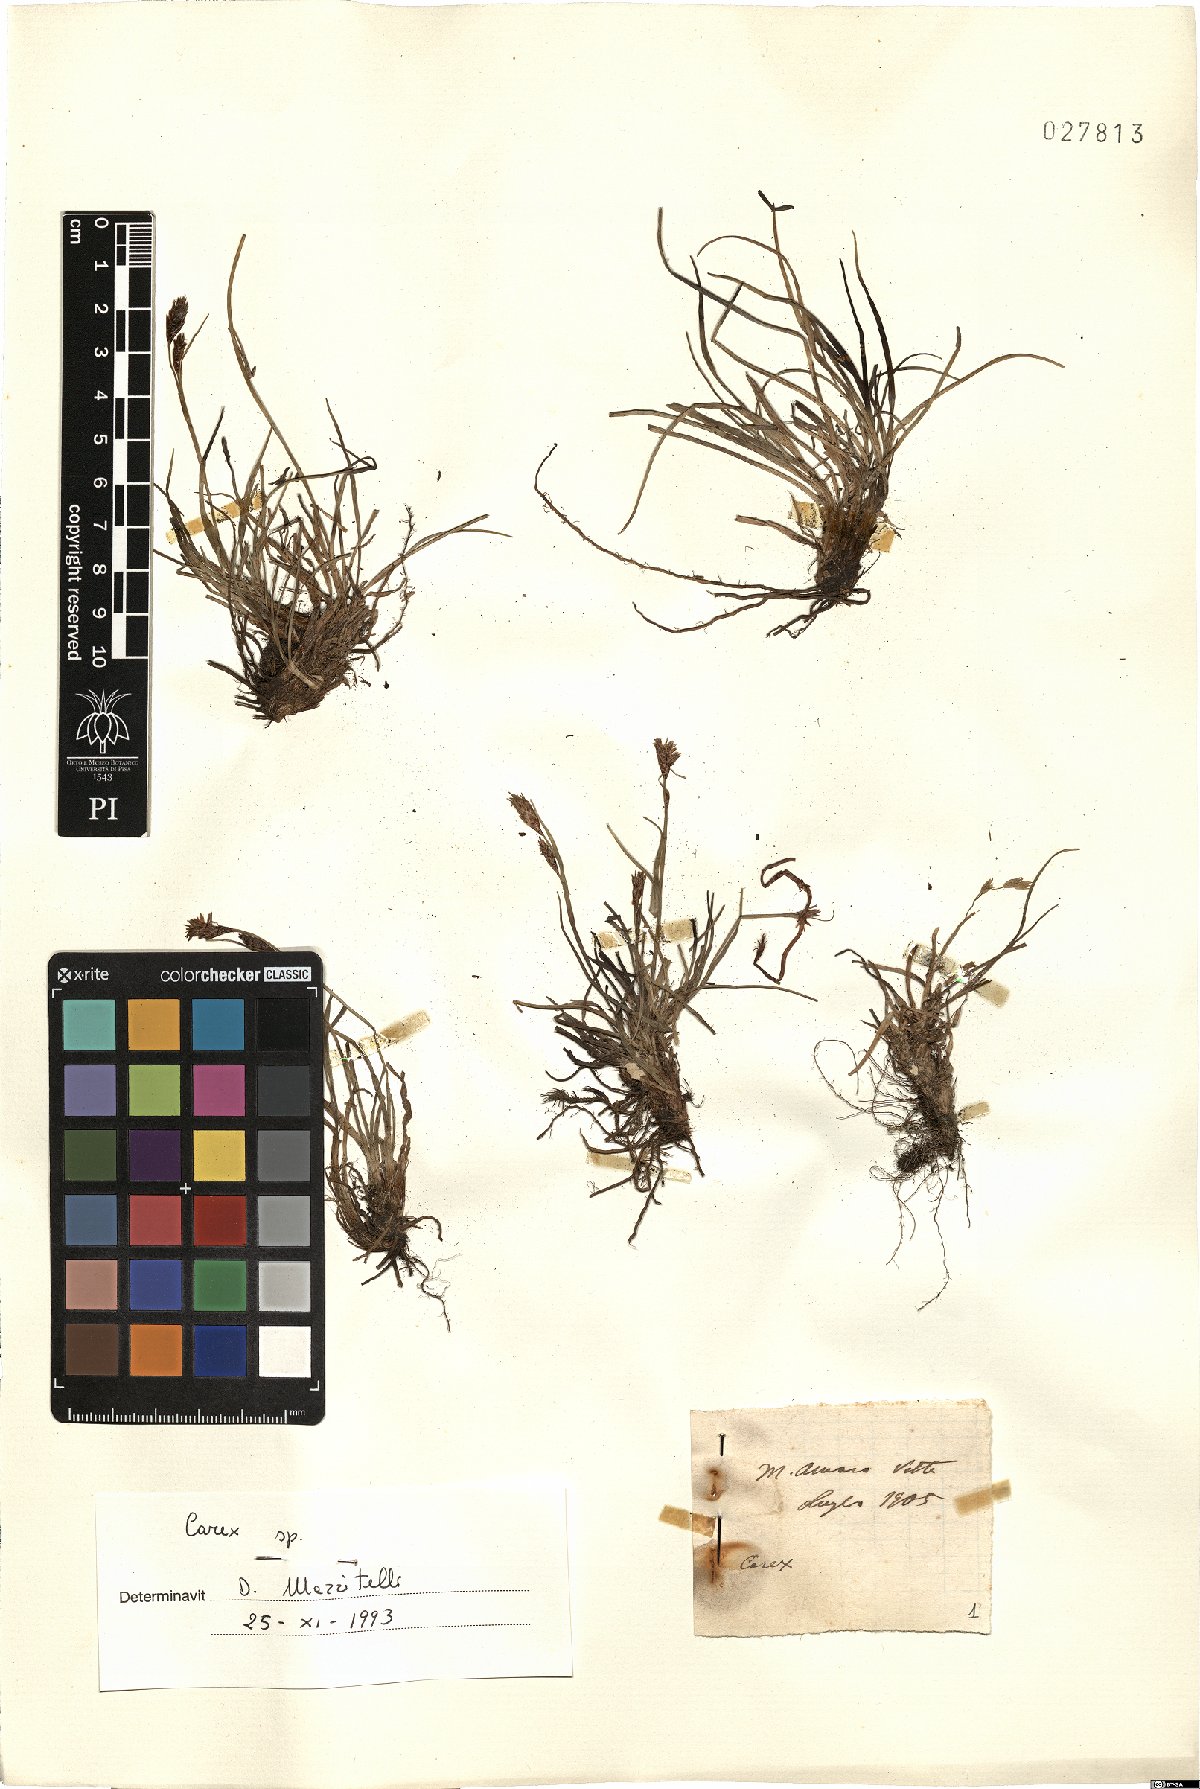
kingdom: Plantae
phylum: Tracheophyta
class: Liliopsida
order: Poales
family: Cyperaceae
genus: Carex
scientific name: Carex
